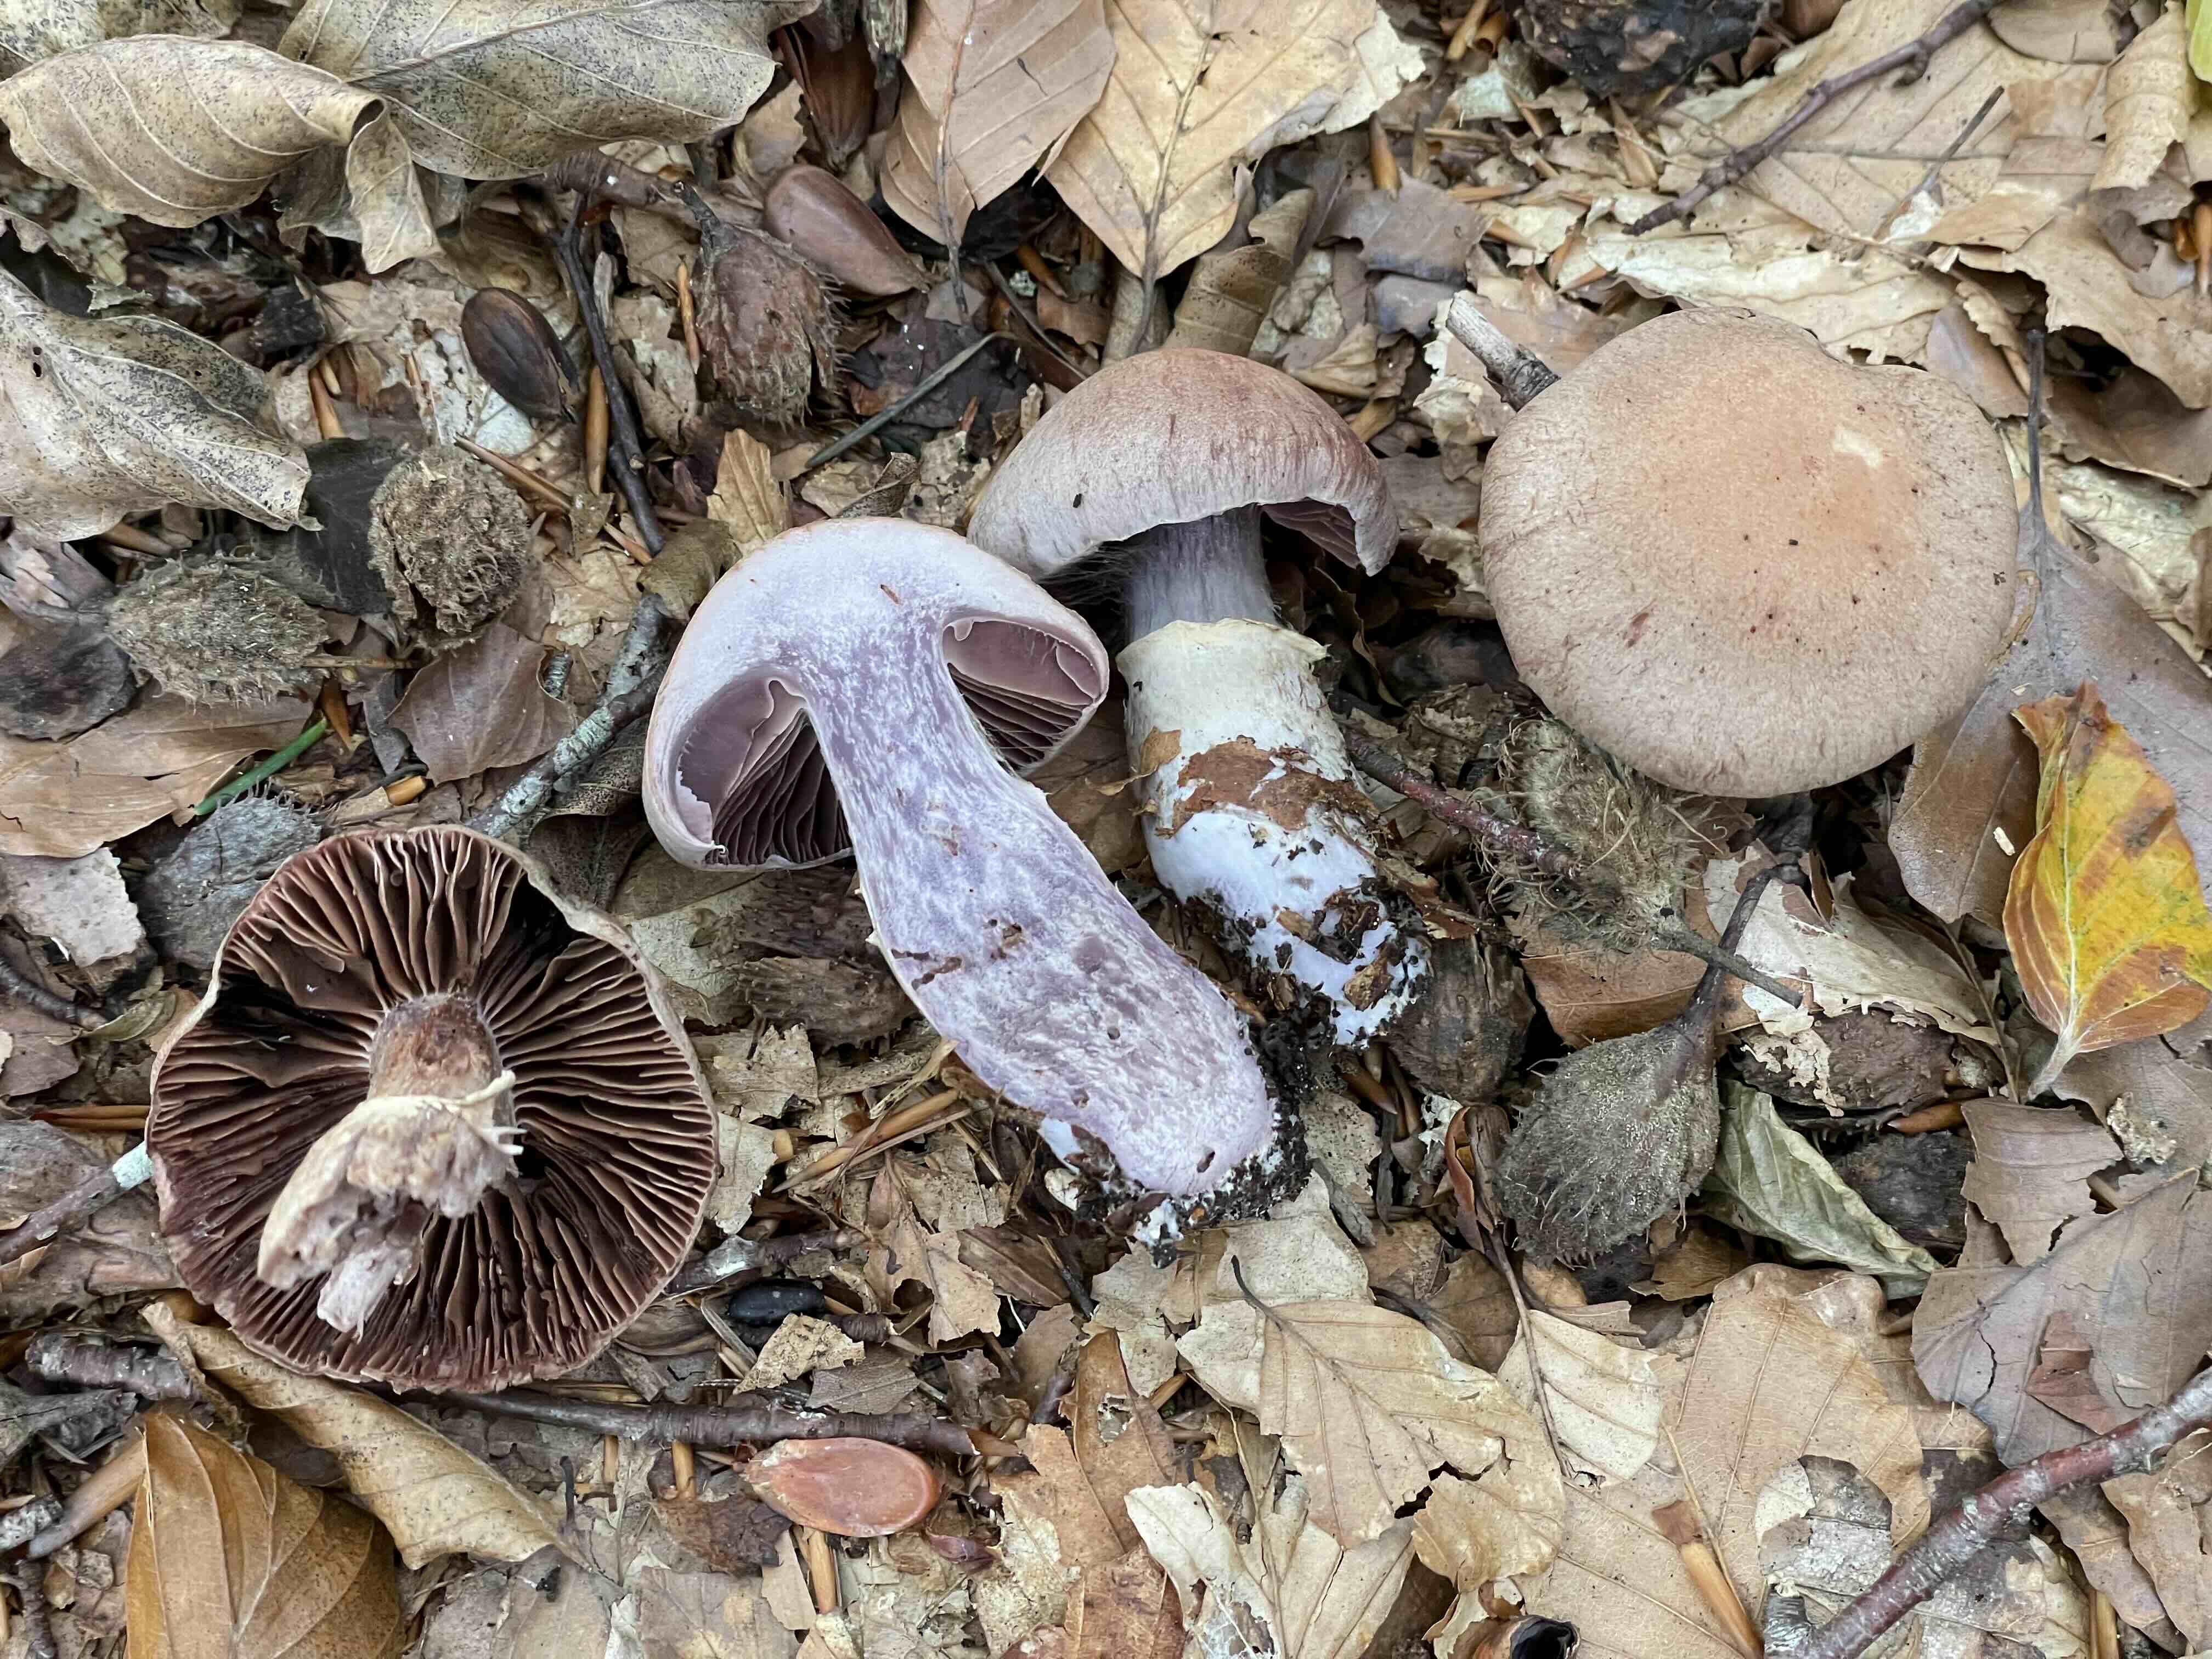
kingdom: Fungi
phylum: Basidiomycota
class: Agaricomycetes
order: Agaricales
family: Cortinariaceae
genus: Cortinarius
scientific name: Cortinarius torvus
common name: champignonagtig slørhat
